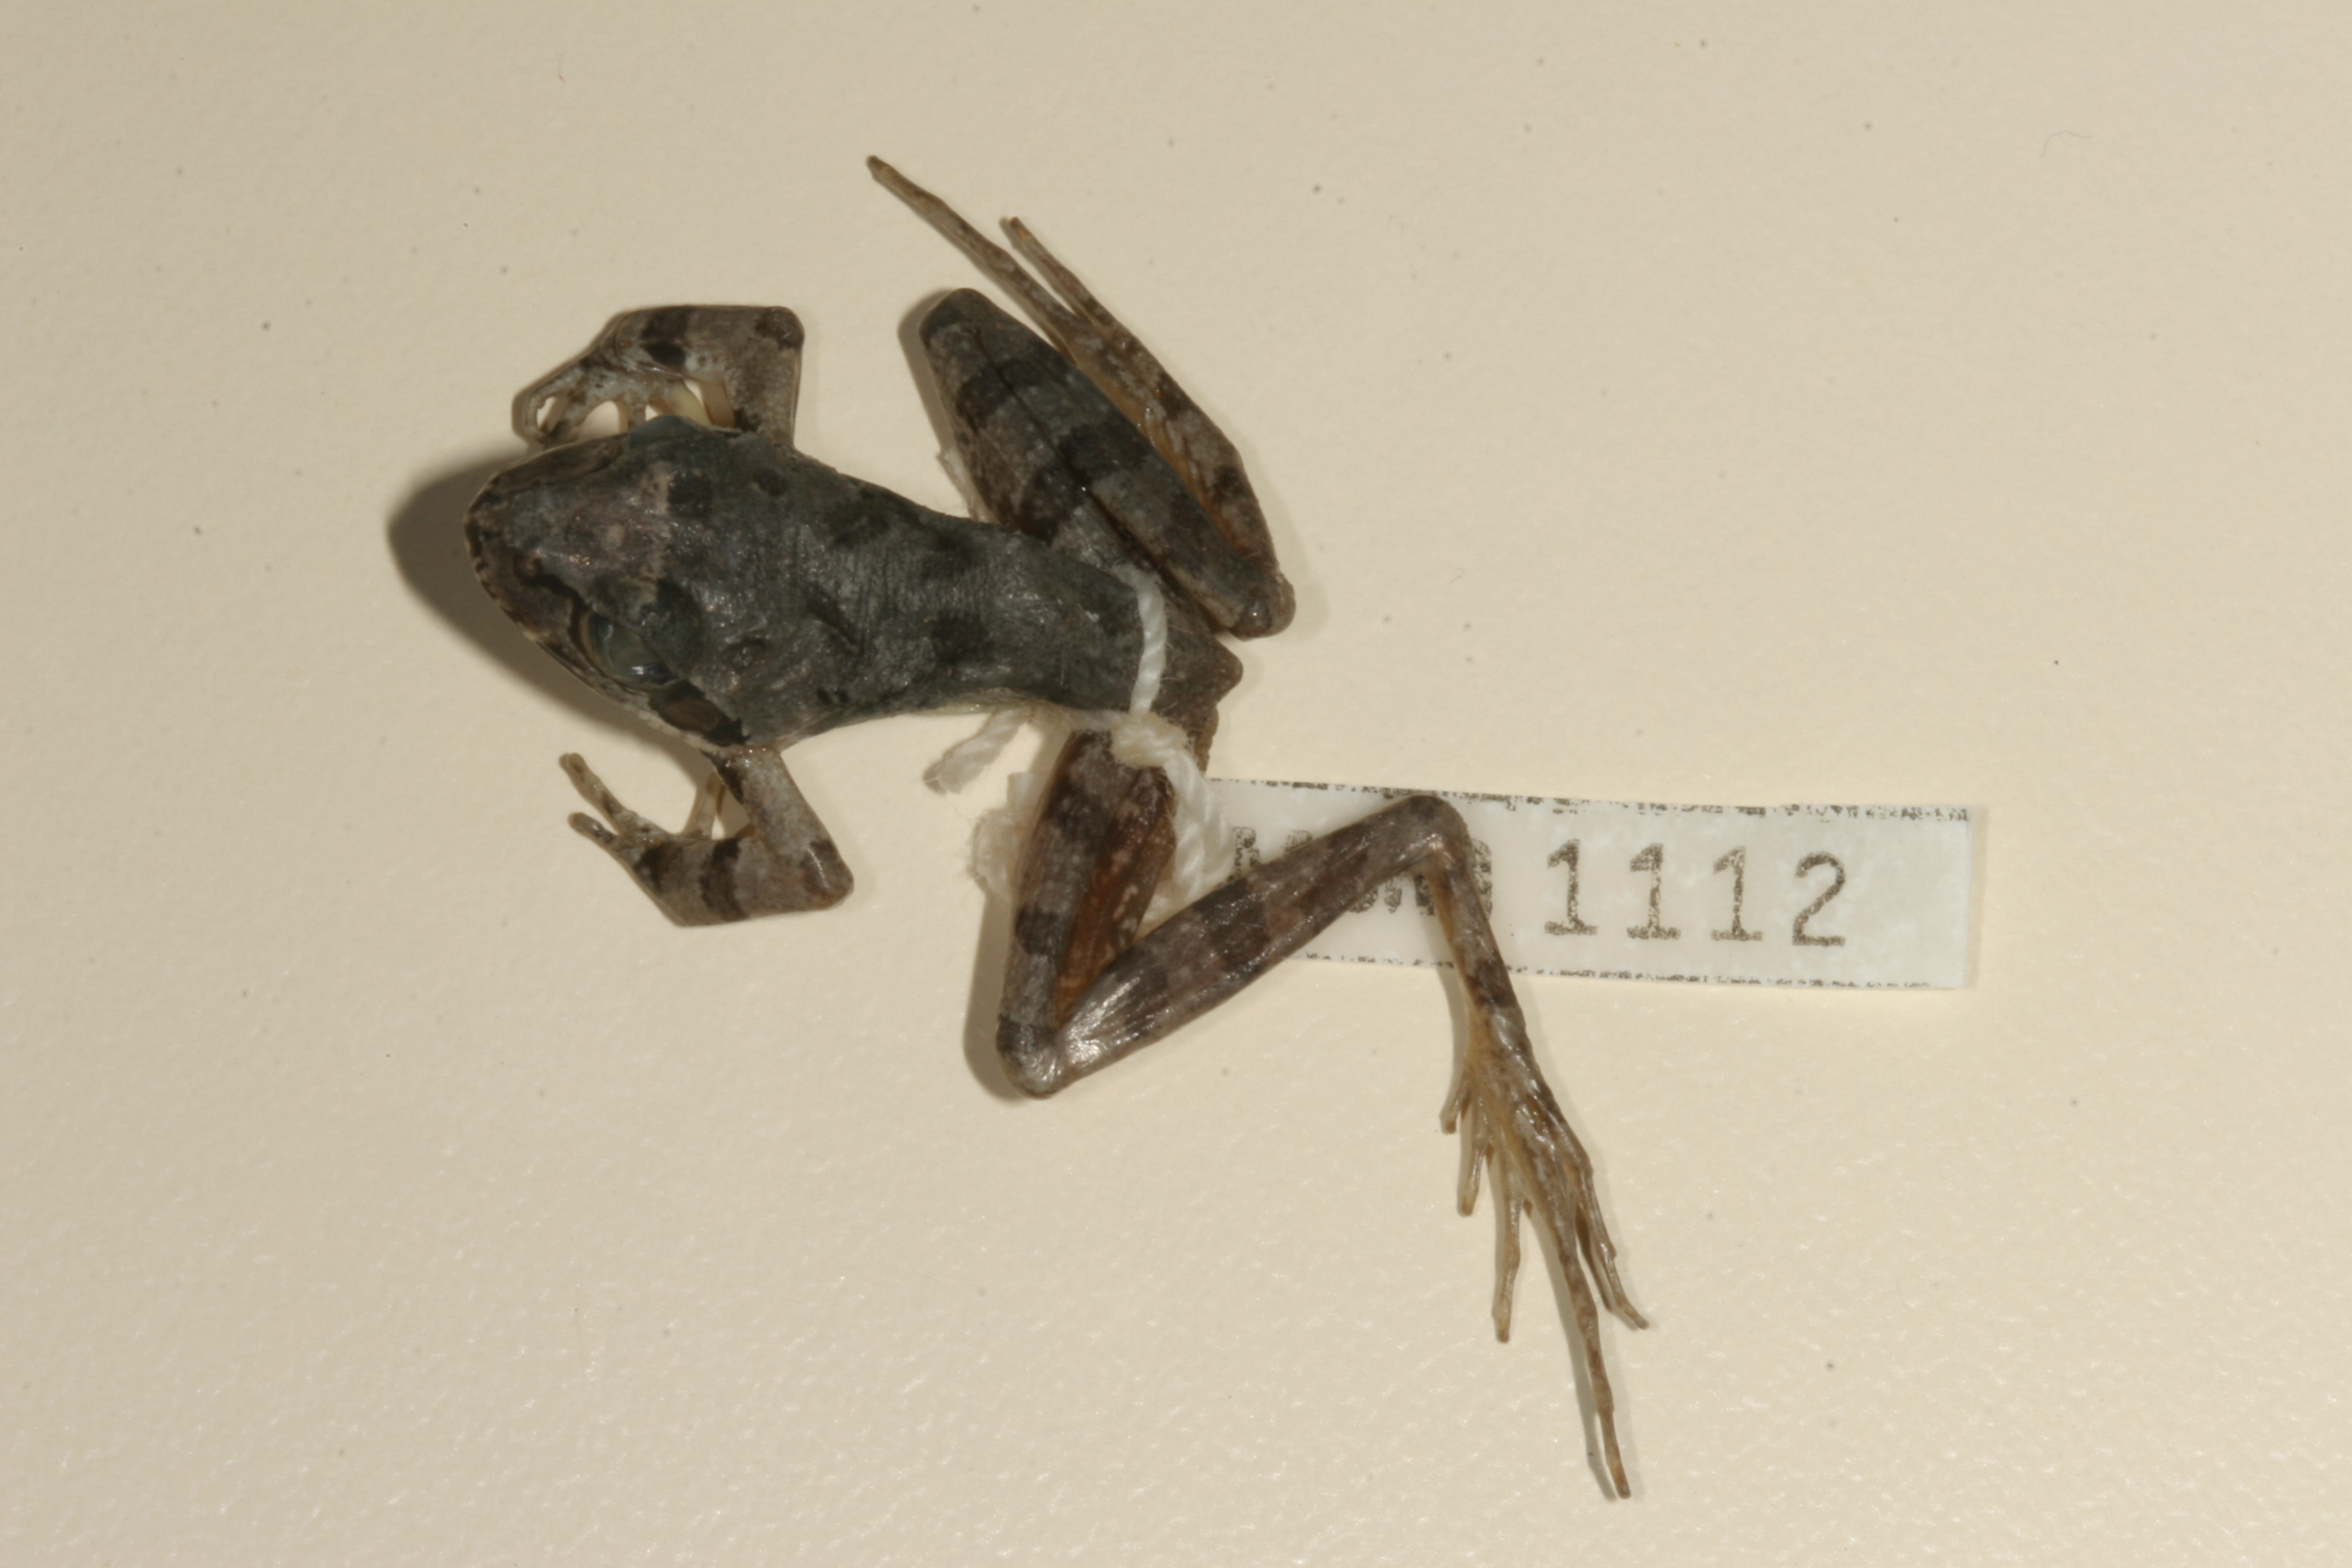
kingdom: Animalia
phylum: Chordata
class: Amphibia
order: Anura
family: Pyxicephalidae
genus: Strongylopus
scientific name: Strongylopus grayii
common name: Gray's stream frog
